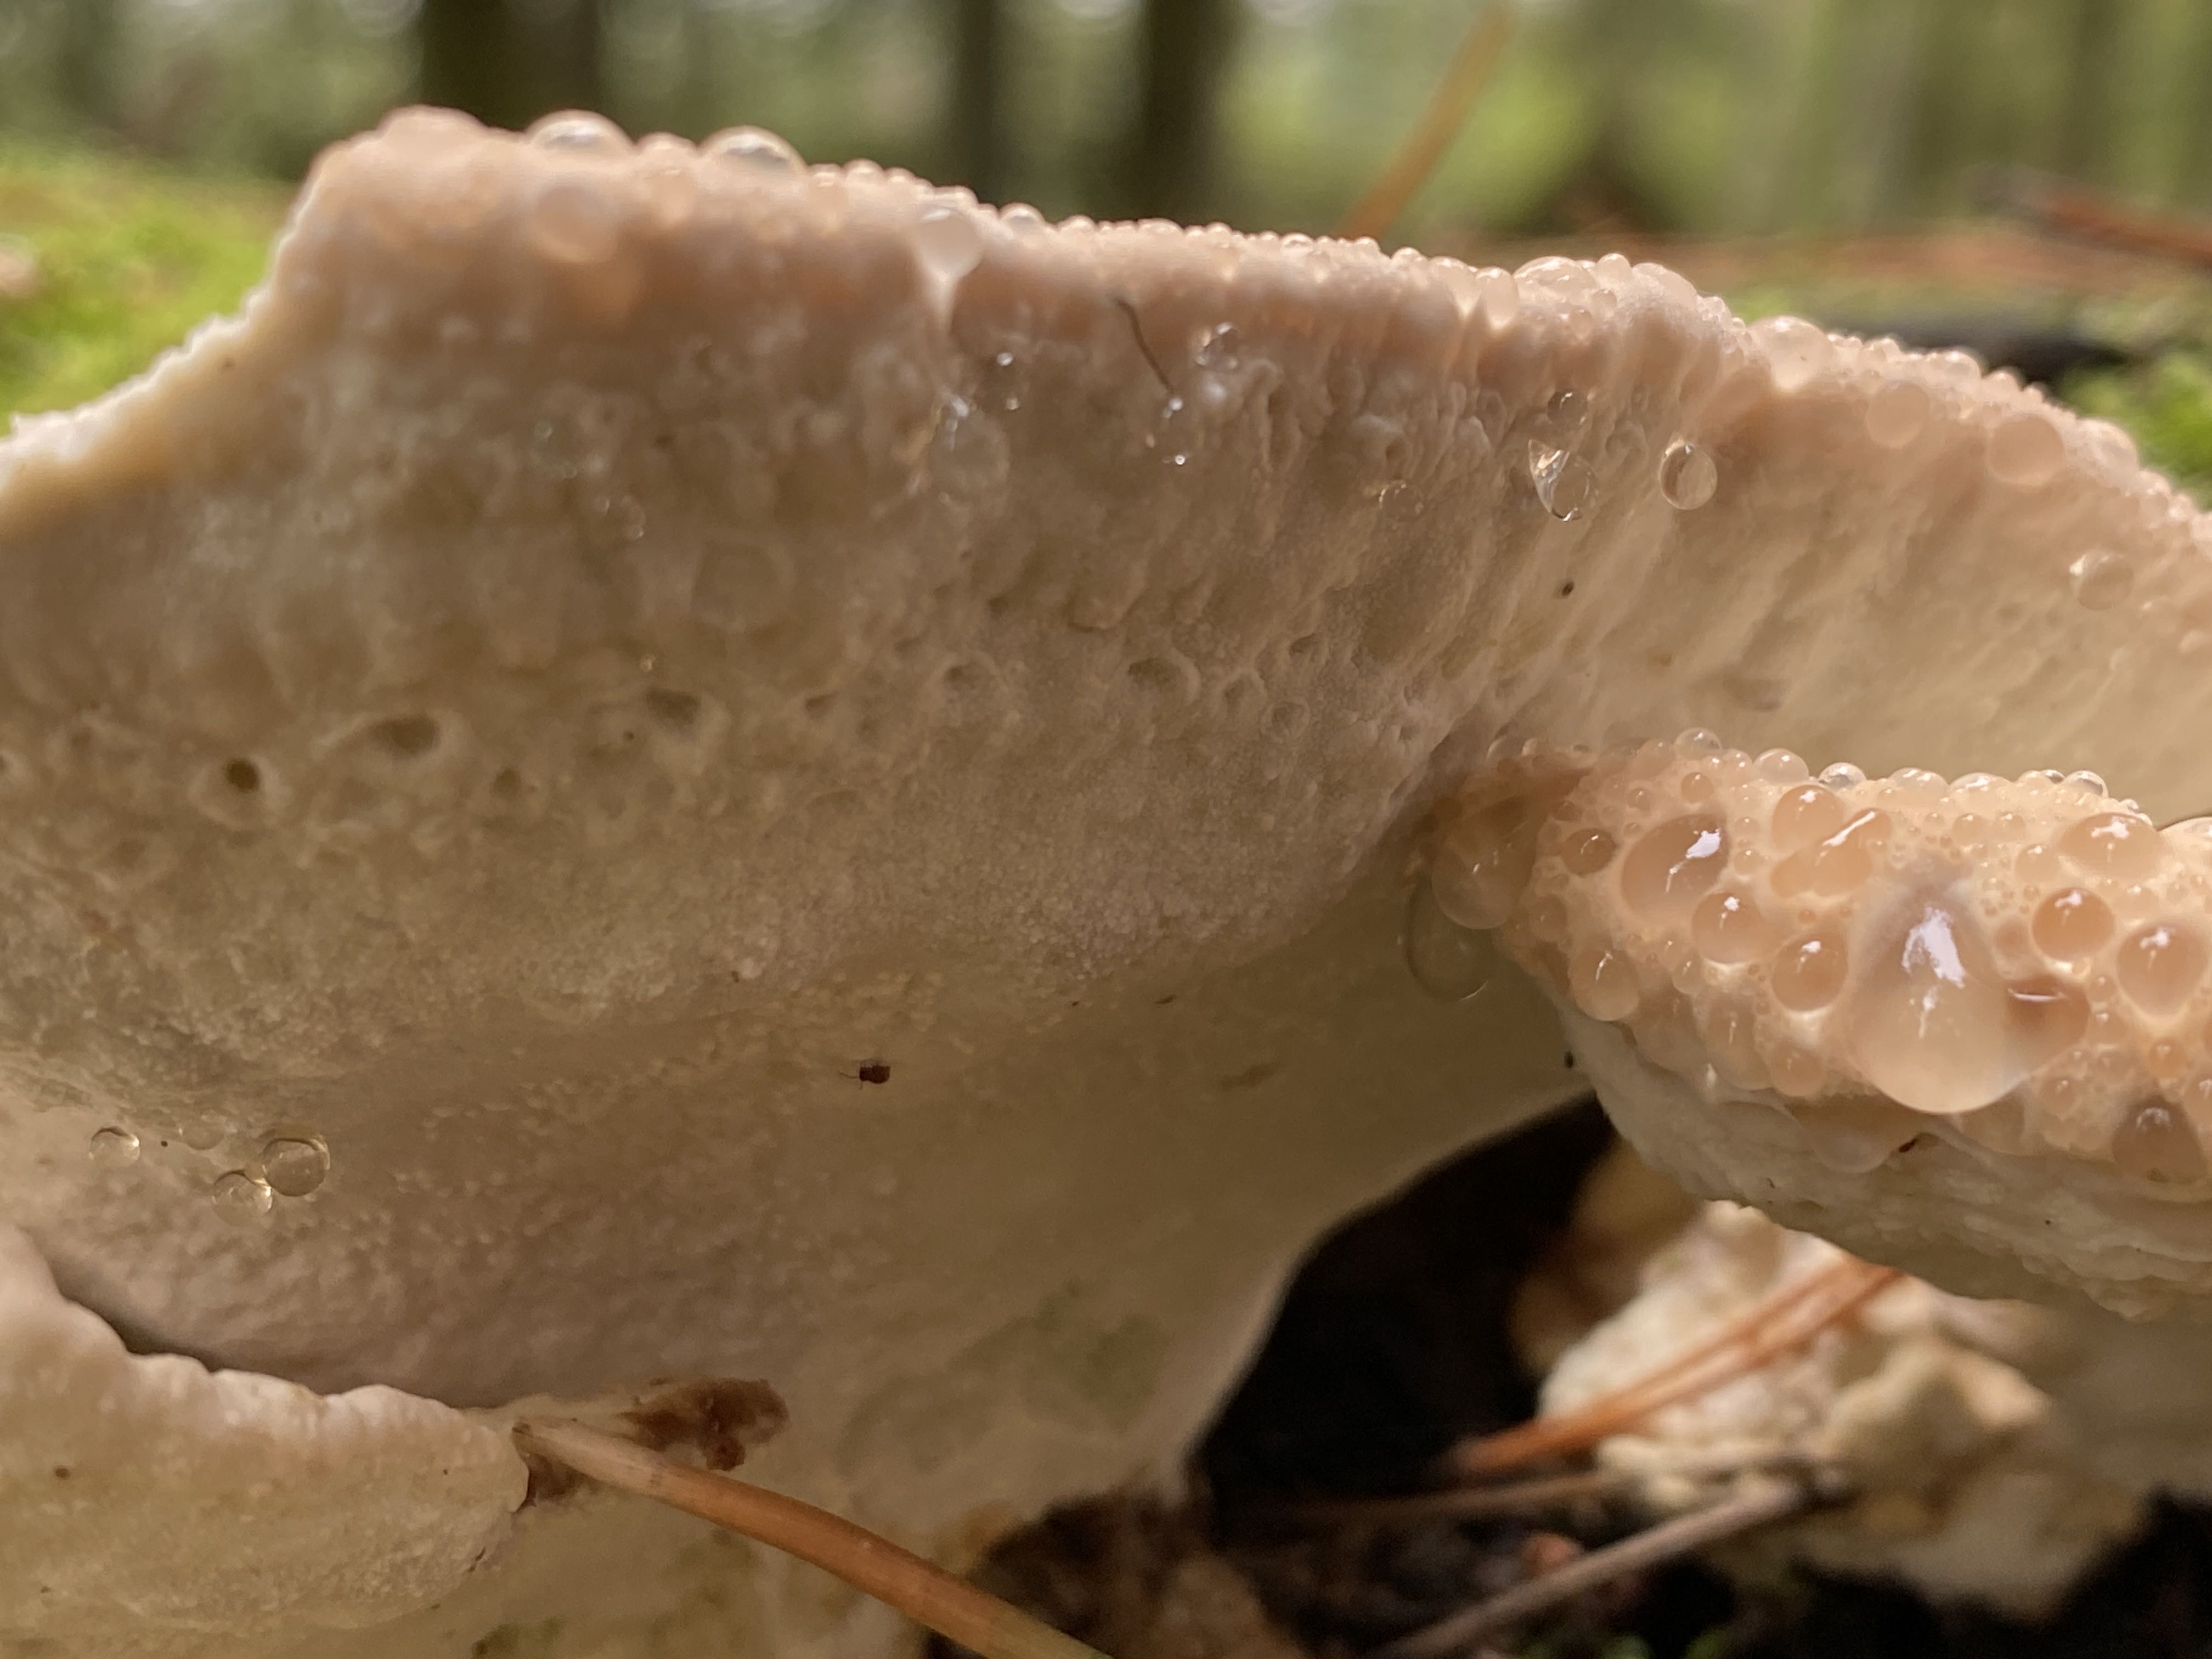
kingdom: Fungi
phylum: Basidiomycota
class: Agaricomycetes
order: Polyporales
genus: Calcipostia
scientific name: Calcipostia guttulata
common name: dråbe-kødporesvamp
